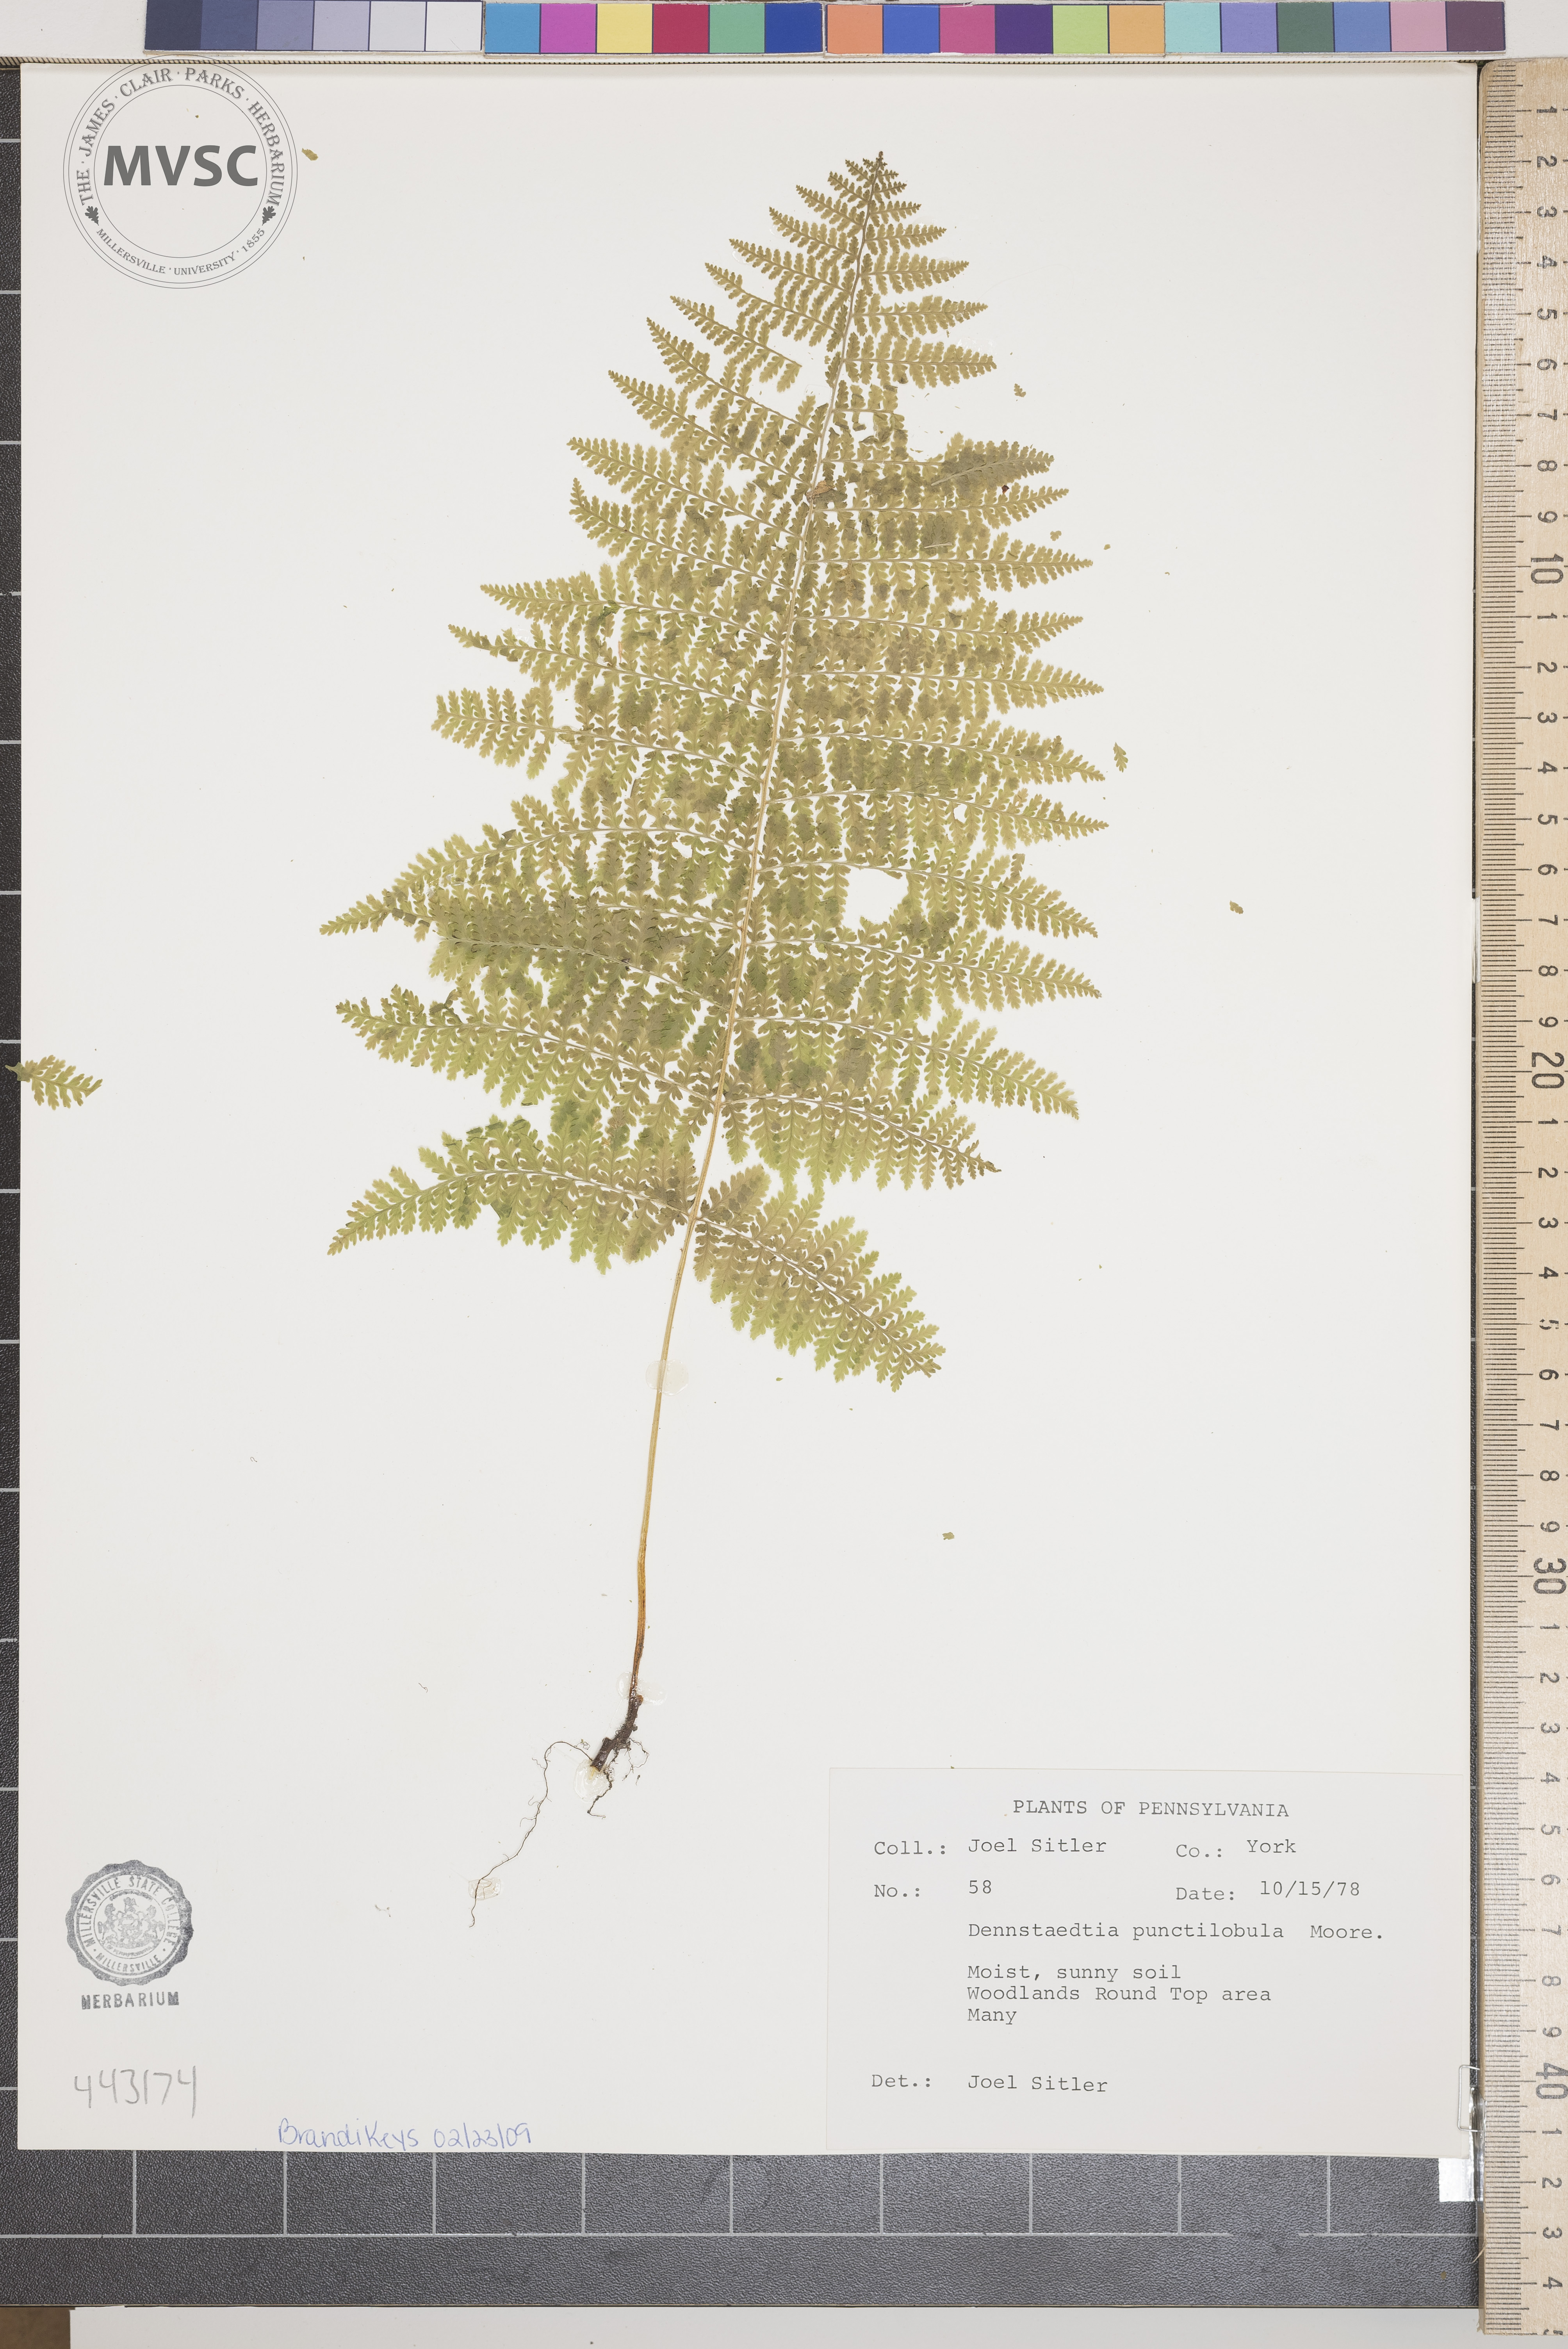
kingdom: Plantae
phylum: Tracheophyta
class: Polypodiopsida
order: Polypodiales
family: Dennstaedtiaceae
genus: Sitobolium
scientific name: Sitobolium punctilobum
